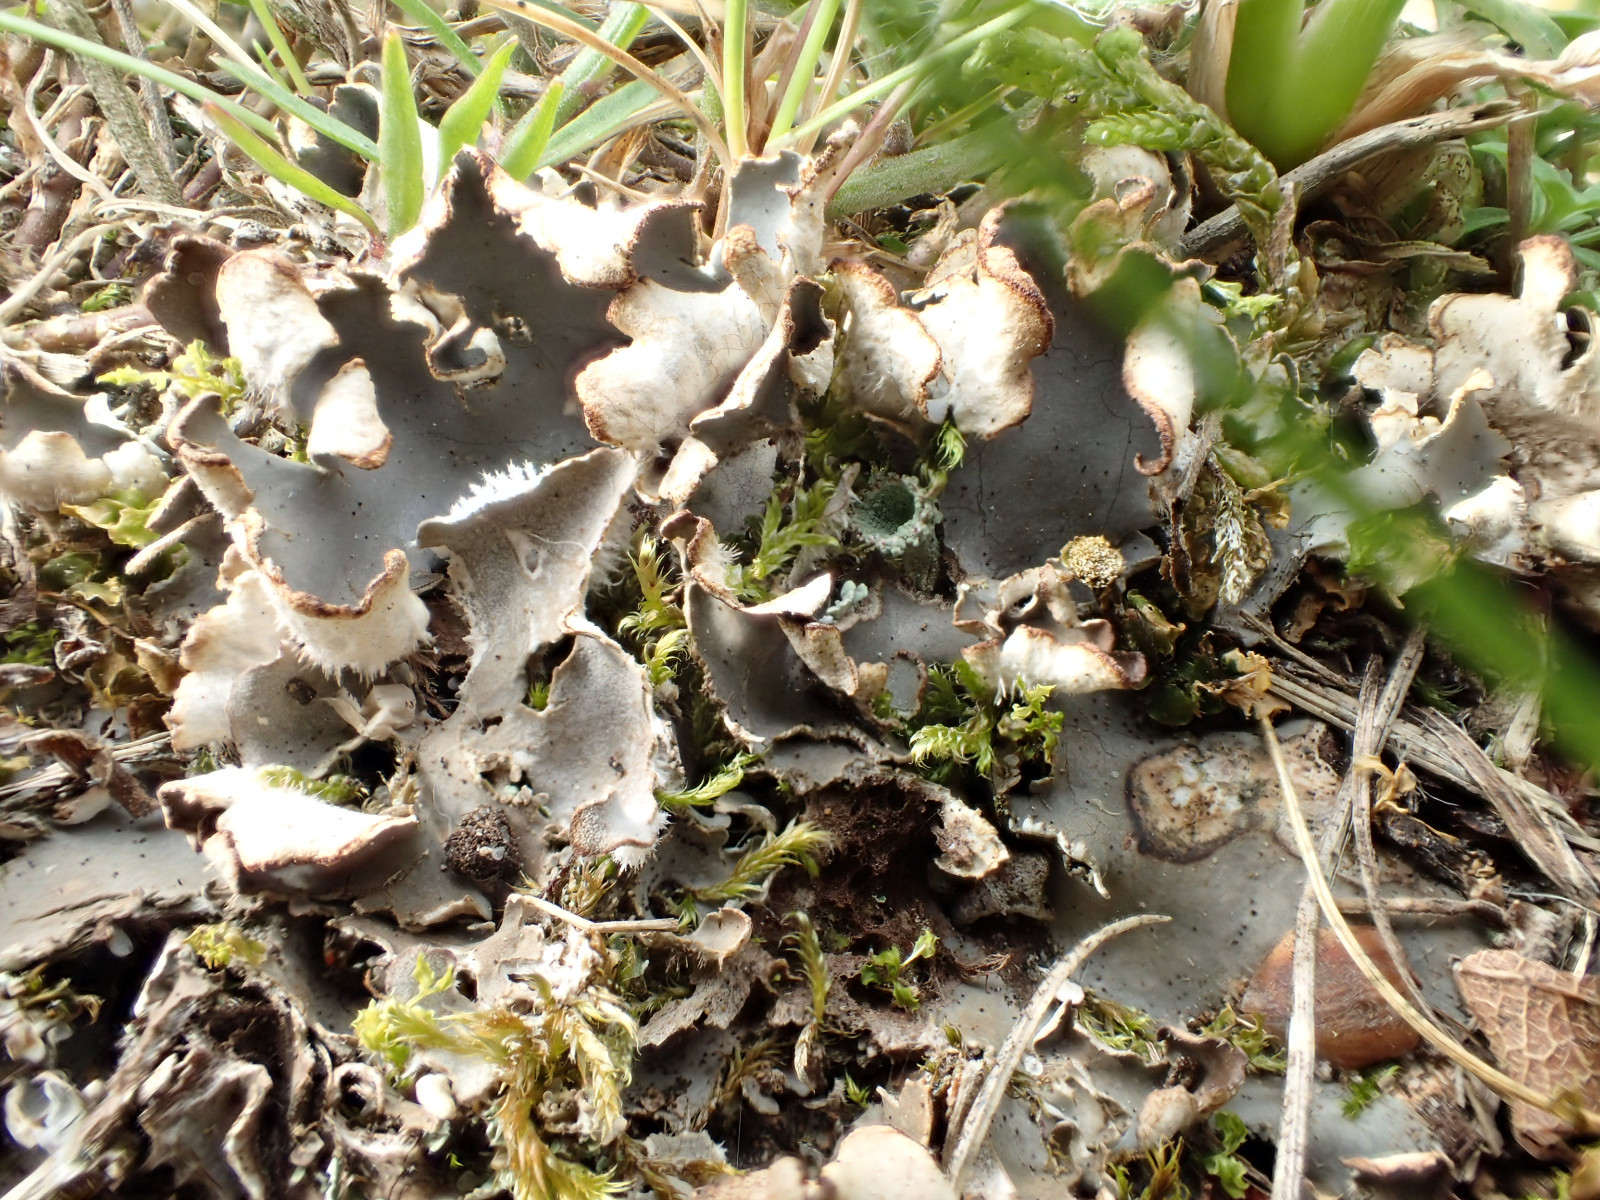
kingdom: Fungi
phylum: Ascomycota
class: Lecanoromycetes
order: Peltigerales
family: Peltigeraceae
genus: Peltigera
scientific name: Peltigera
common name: skjoldlav
